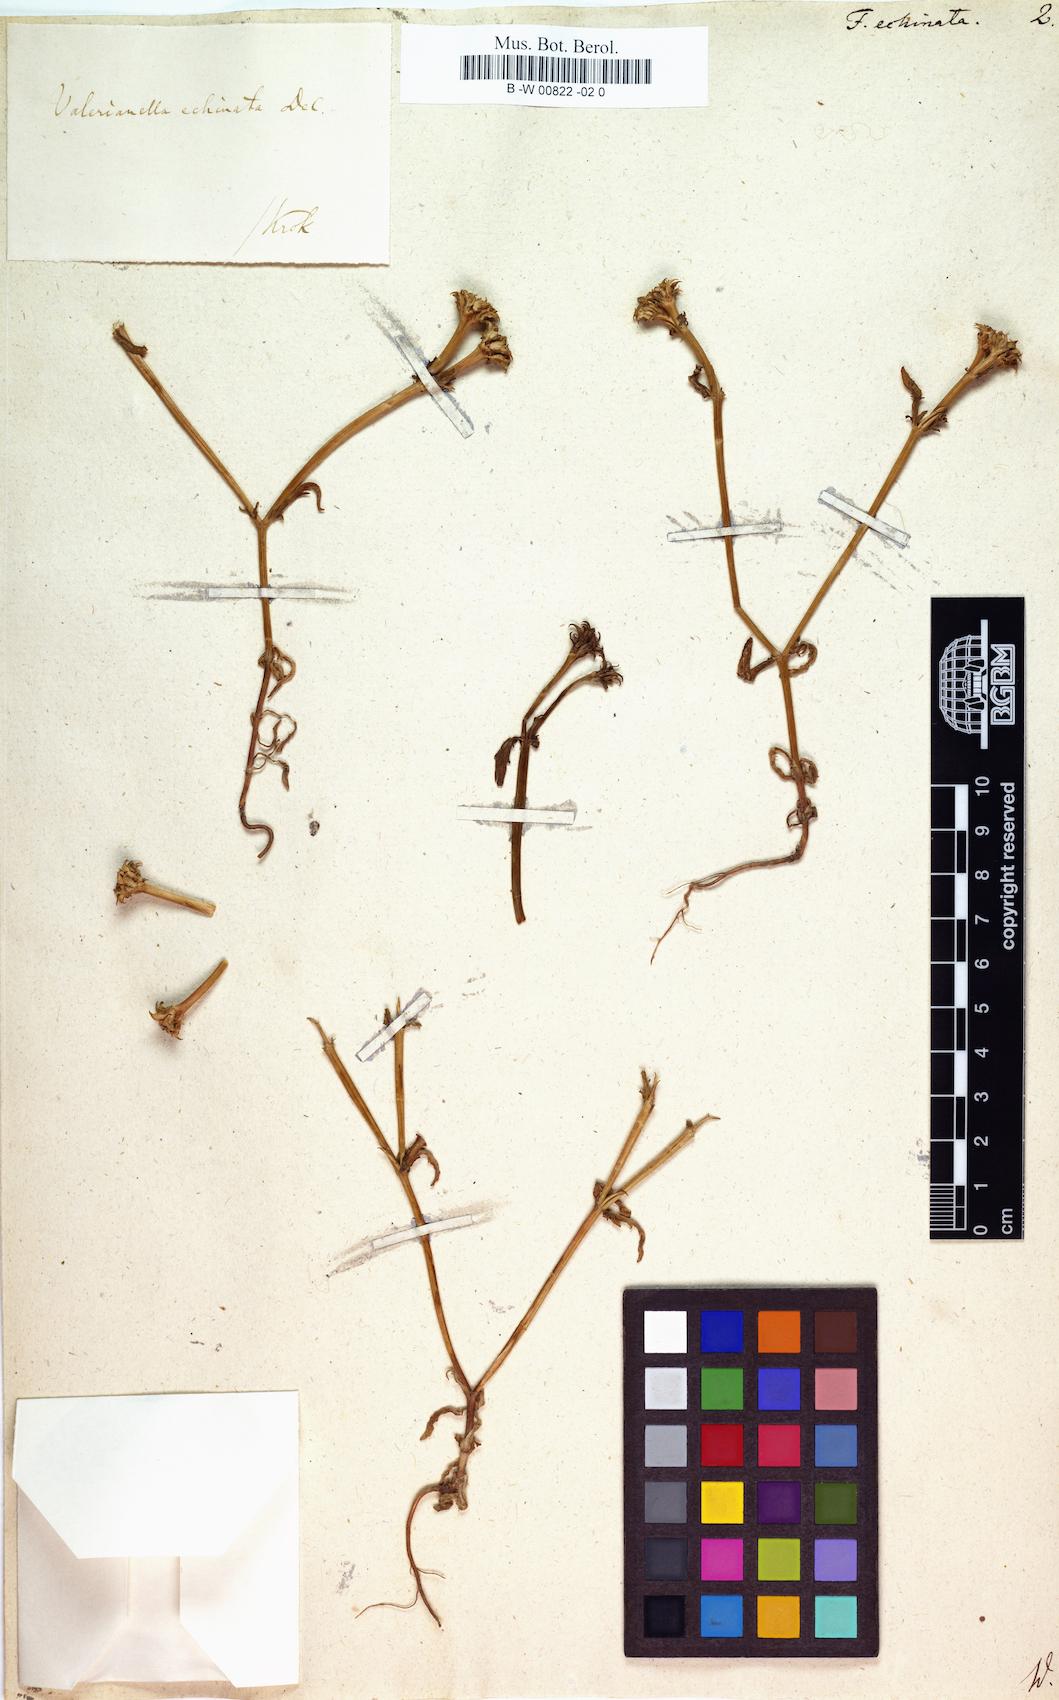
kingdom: Plantae
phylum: Tracheophyta
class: Magnoliopsida
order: Dipsacales
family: Caprifoliaceae
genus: Valerianella
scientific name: Valerianella echinata
